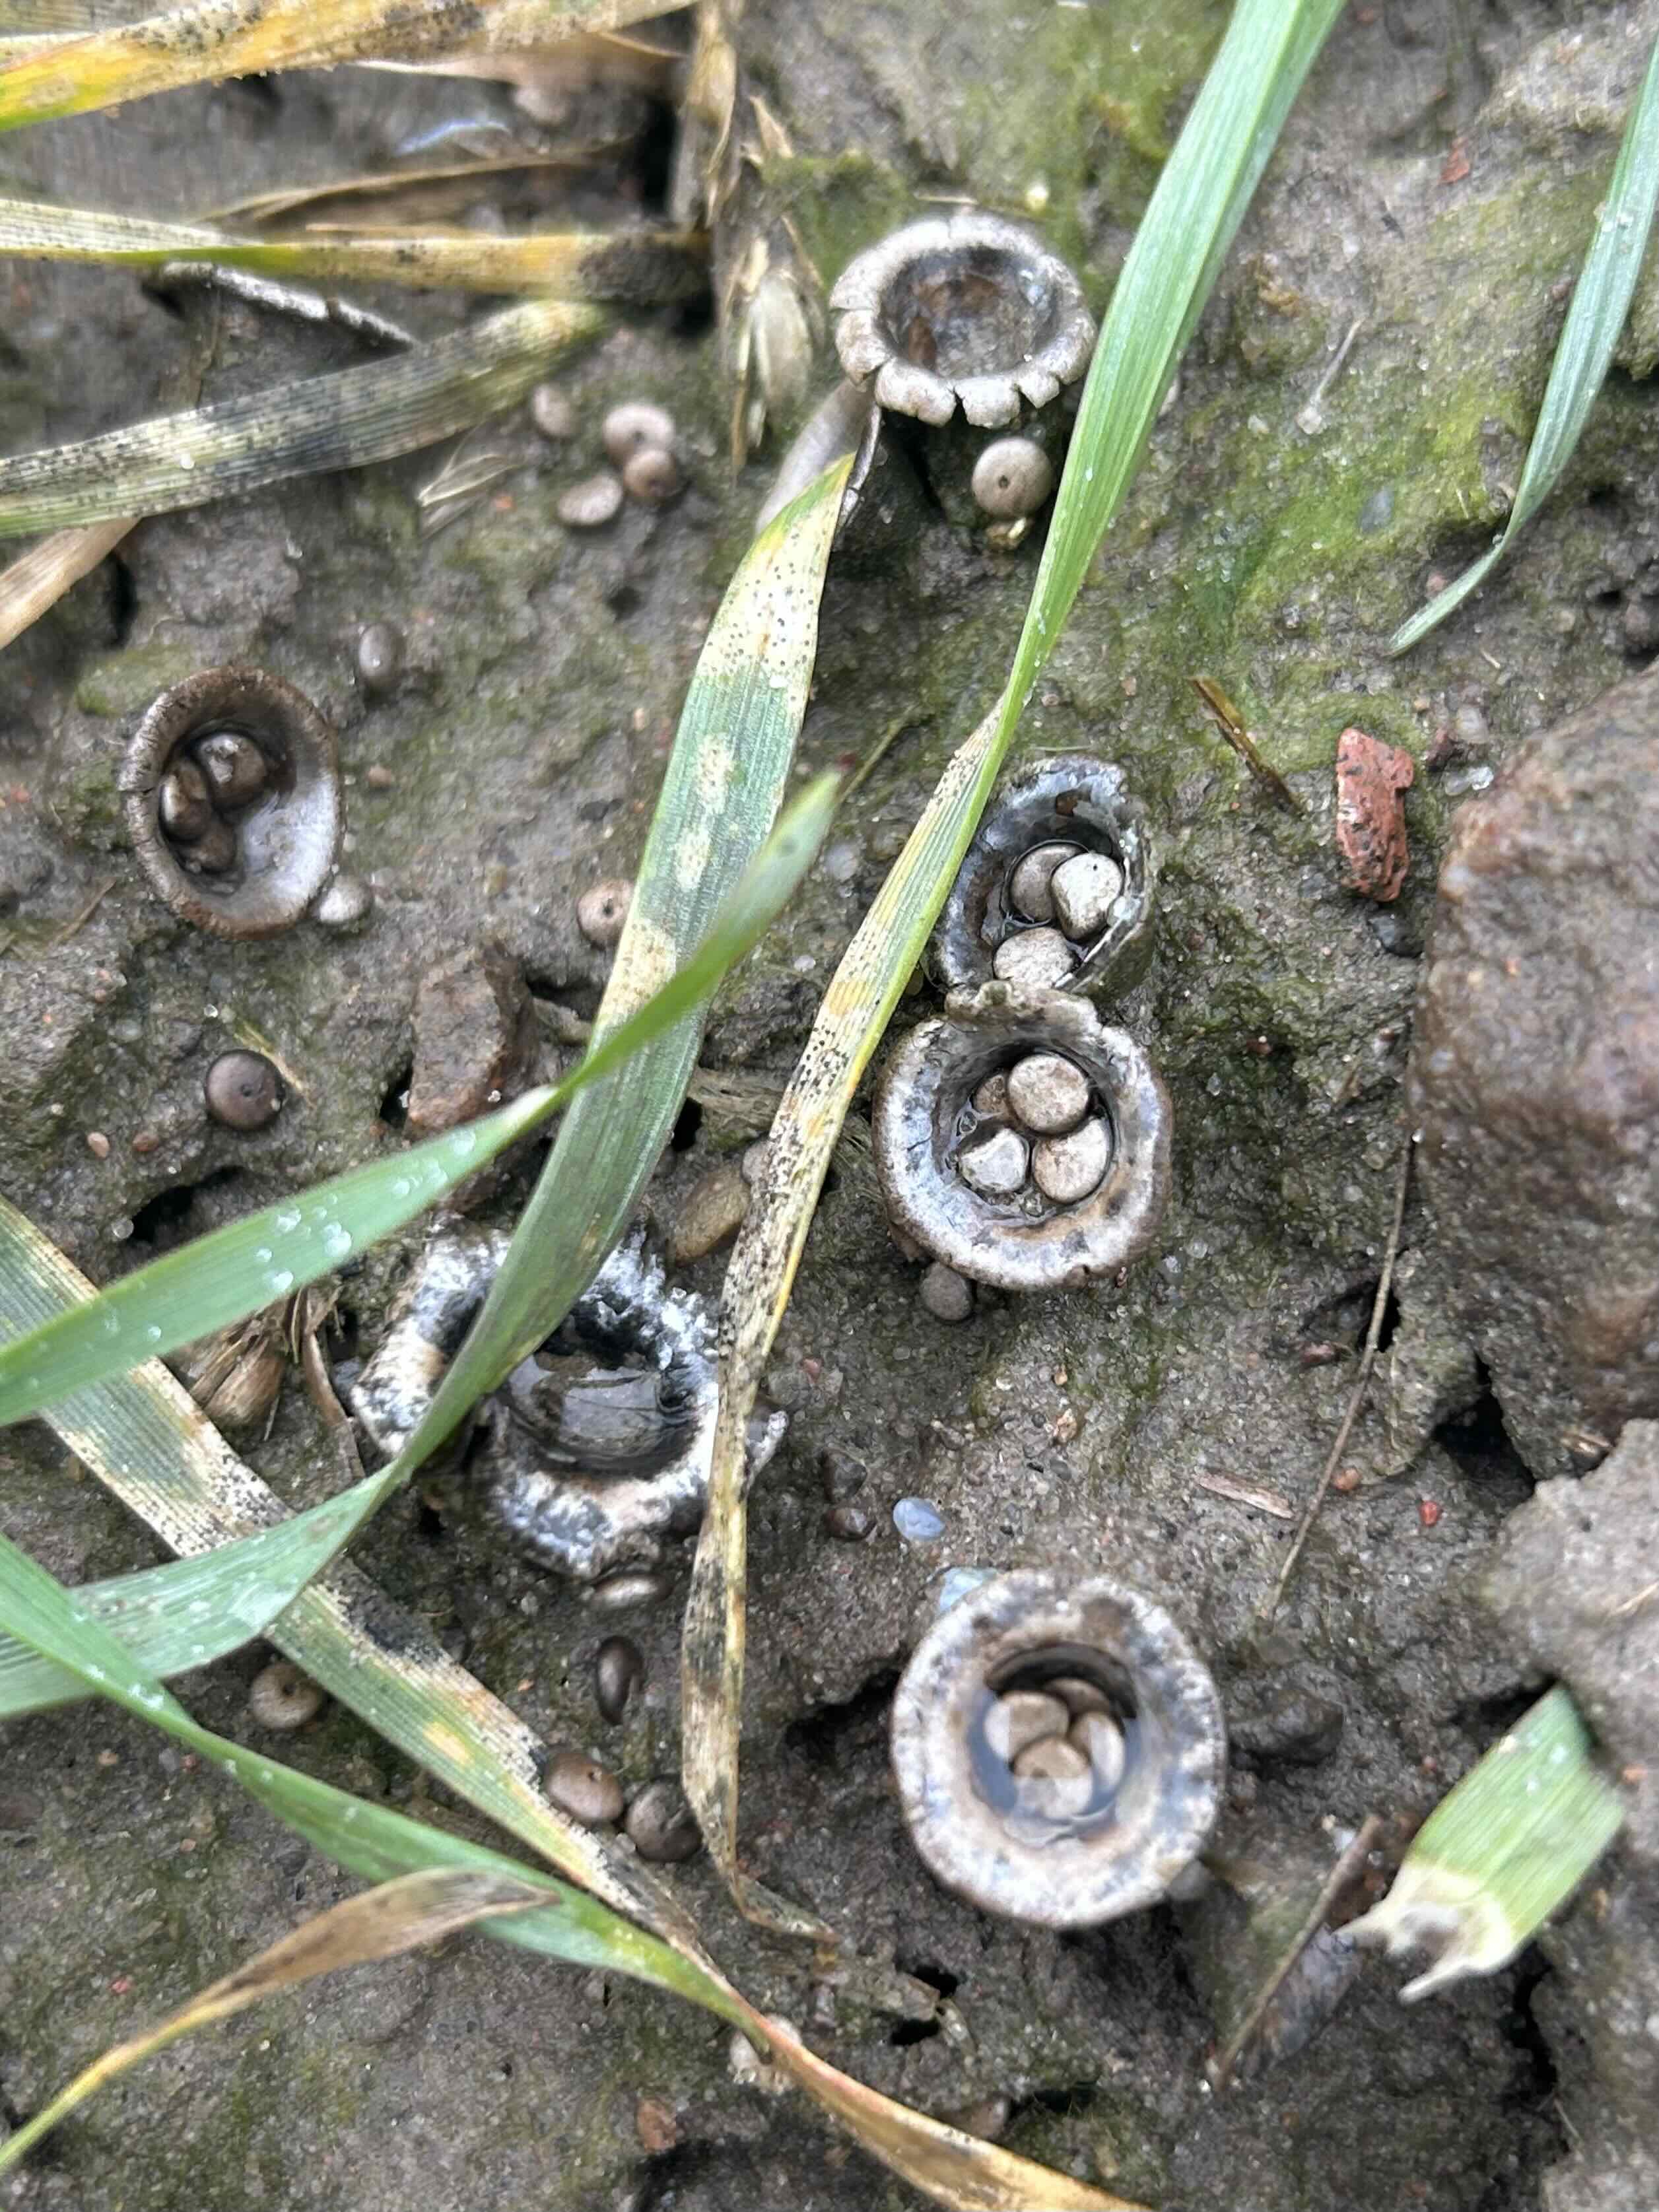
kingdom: Fungi
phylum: Basidiomycota
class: Agaricomycetes
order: Agaricales
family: Agaricaceae
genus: Cyathus
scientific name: Cyathus olla
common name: klokke-redesvamp
